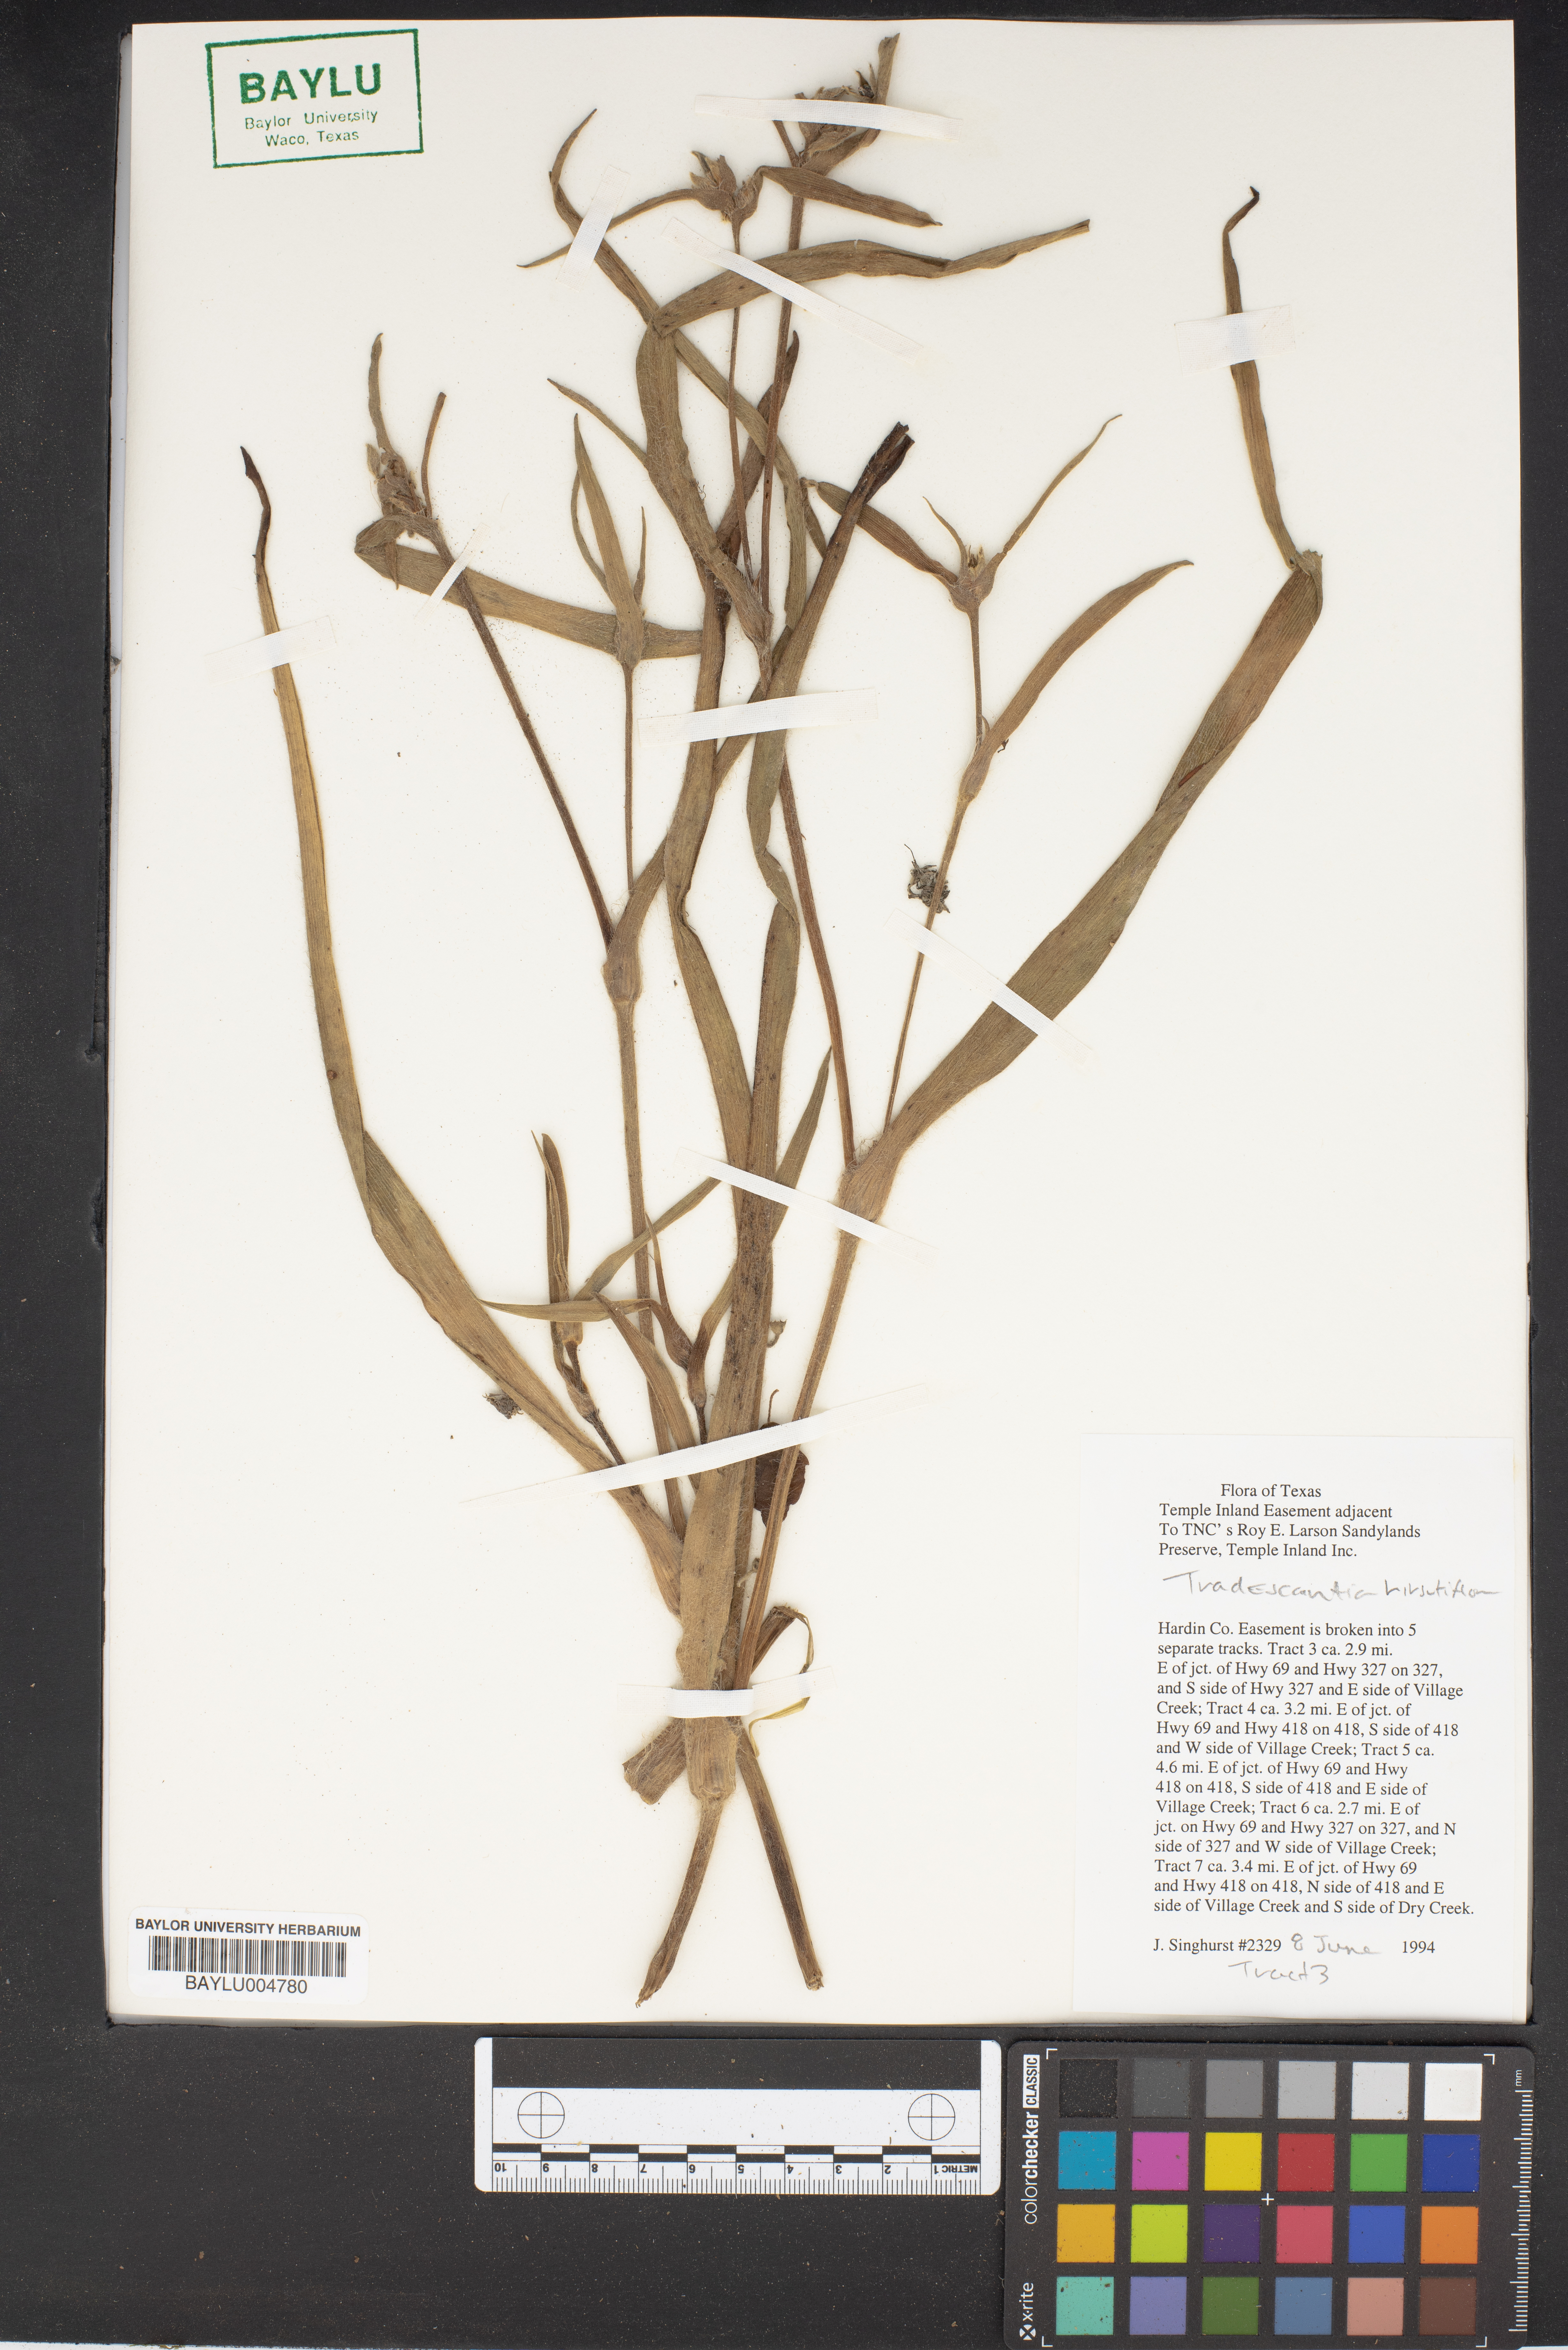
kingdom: Plantae
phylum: Tracheophyta
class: Liliopsida
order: Commelinales
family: Commelinaceae
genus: Tradescantia
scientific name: Tradescantia hirsutiflora
